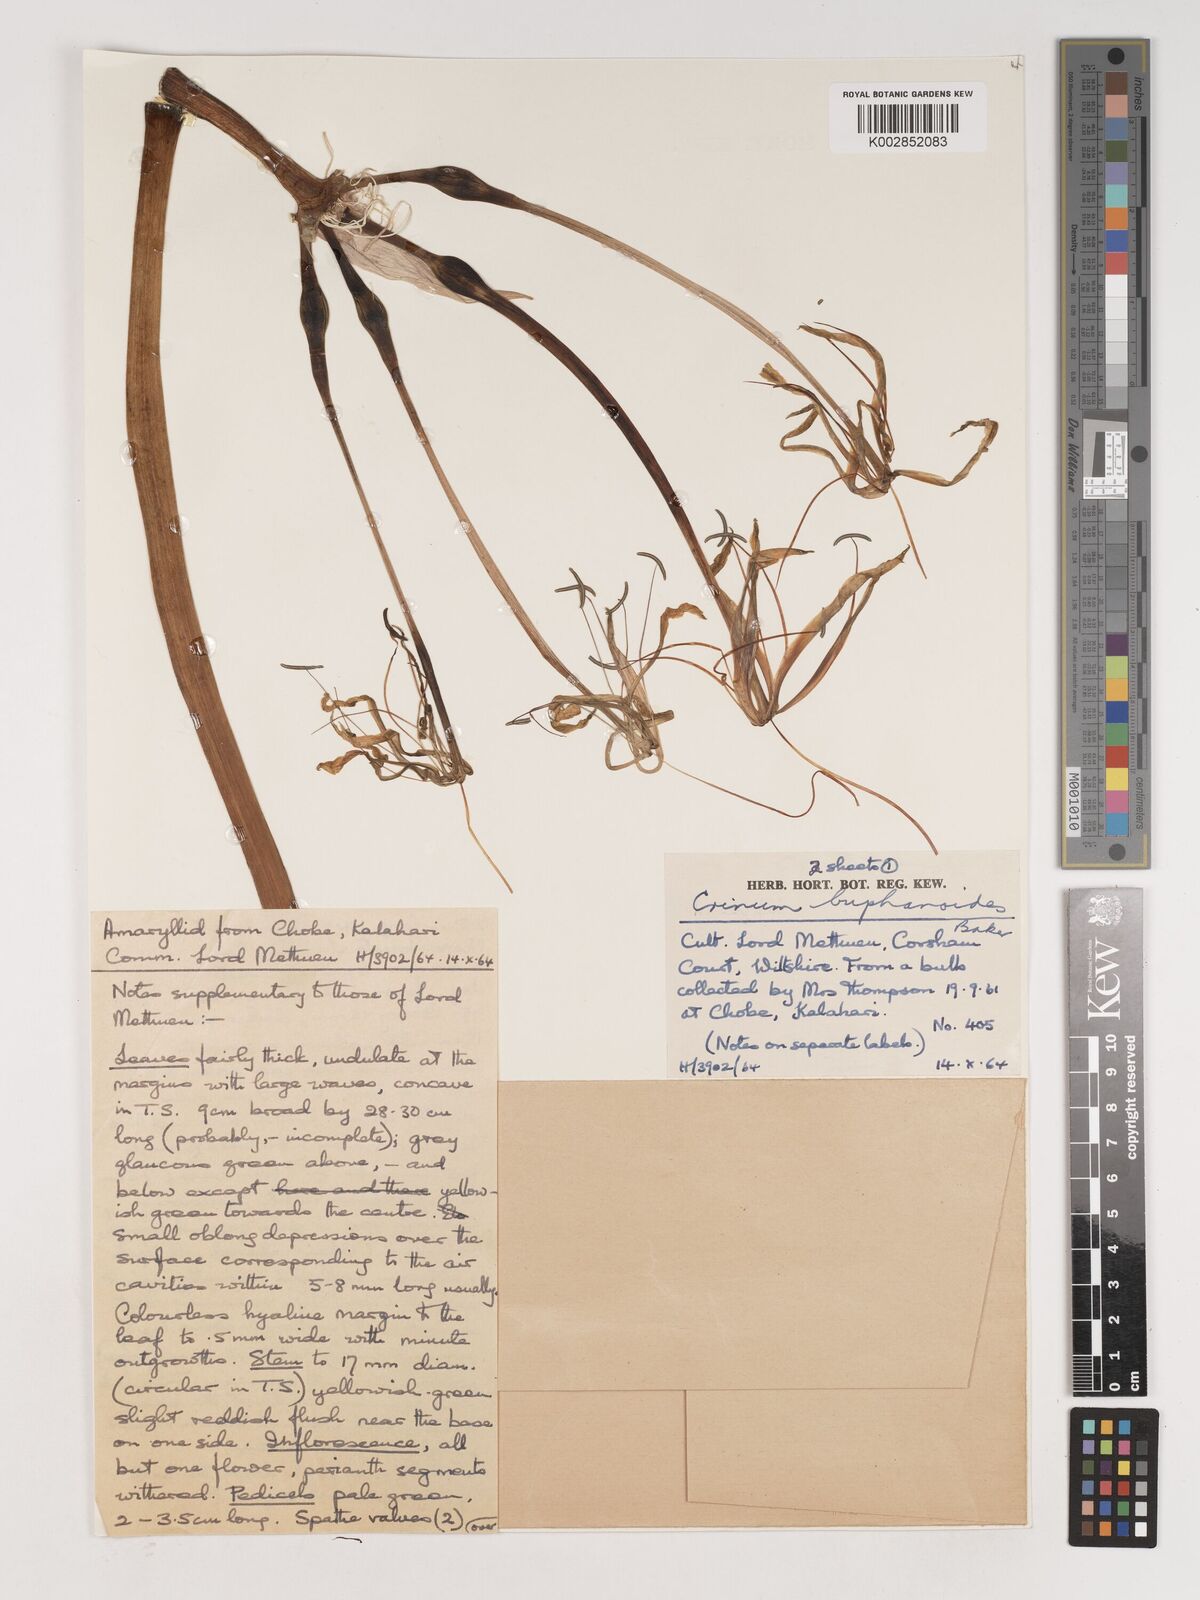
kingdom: Plantae
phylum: Tracheophyta
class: Liliopsida
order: Asparagales
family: Amaryllidaceae
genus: Crinum
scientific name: Crinum buphanoides
